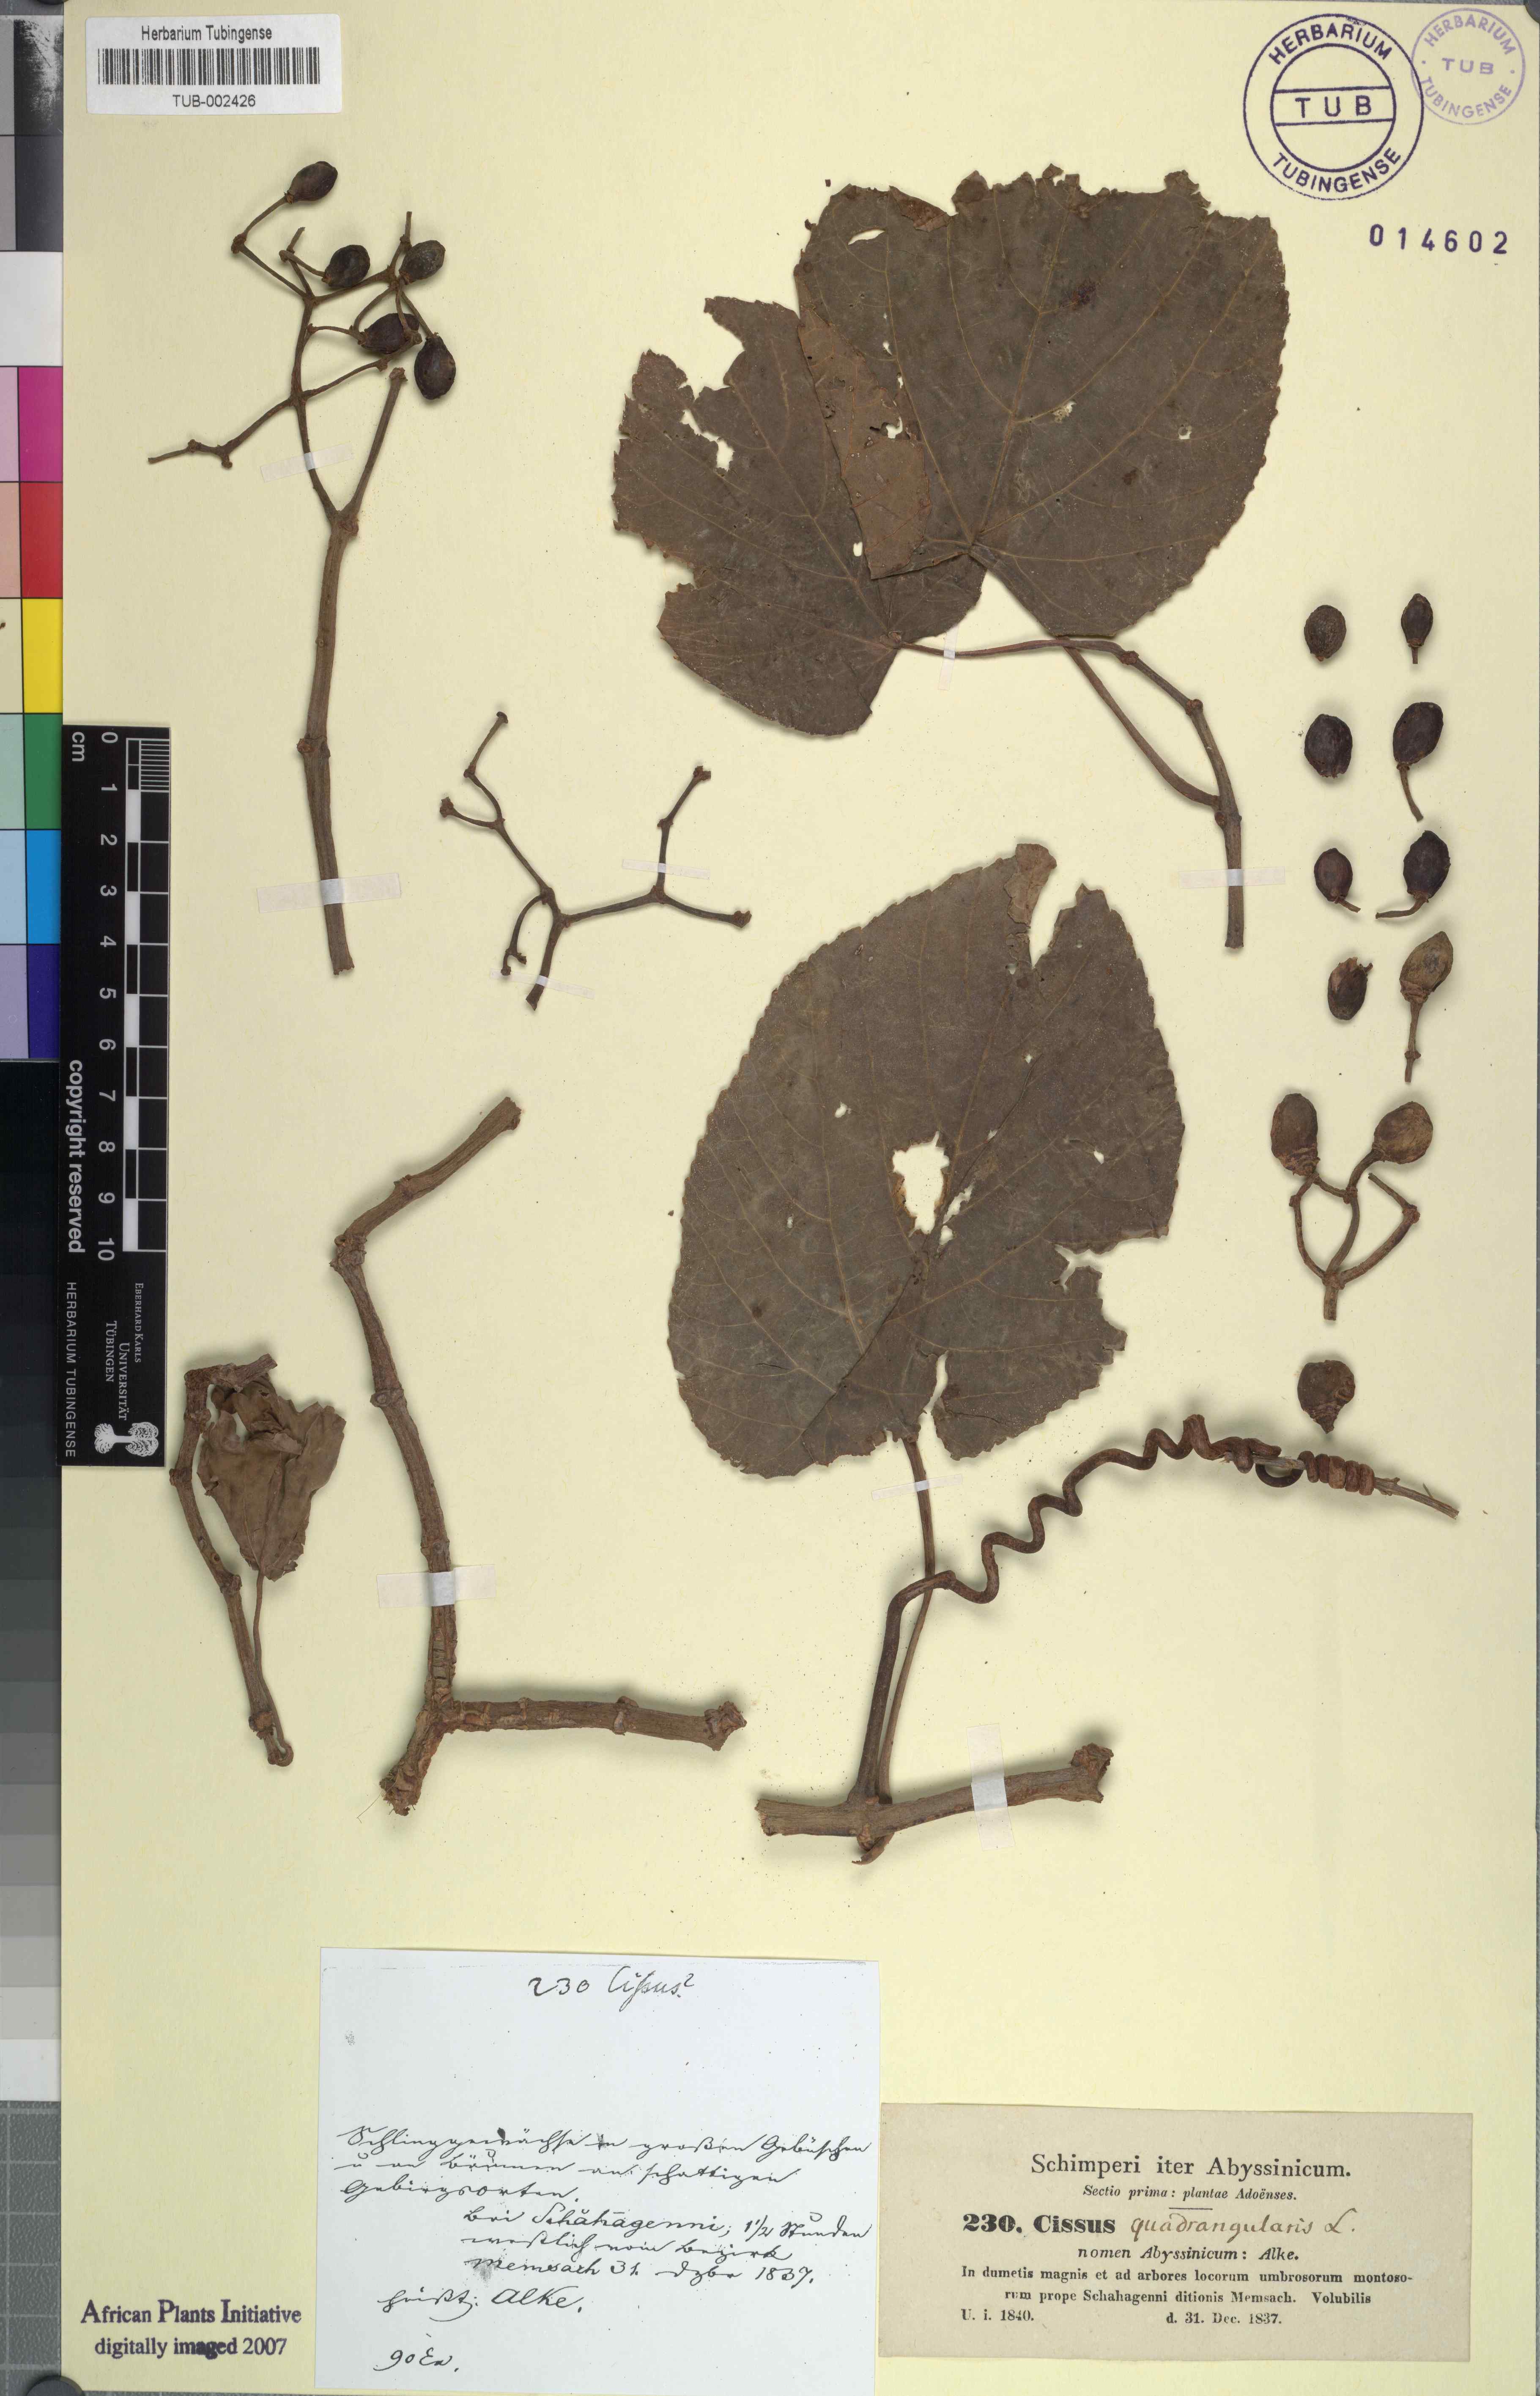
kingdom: Plantae
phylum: Tracheophyta
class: Magnoliopsida
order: Vitales
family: Vitaceae
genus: Cissus
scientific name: Cissus quadrangularis
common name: Veldt-grape
